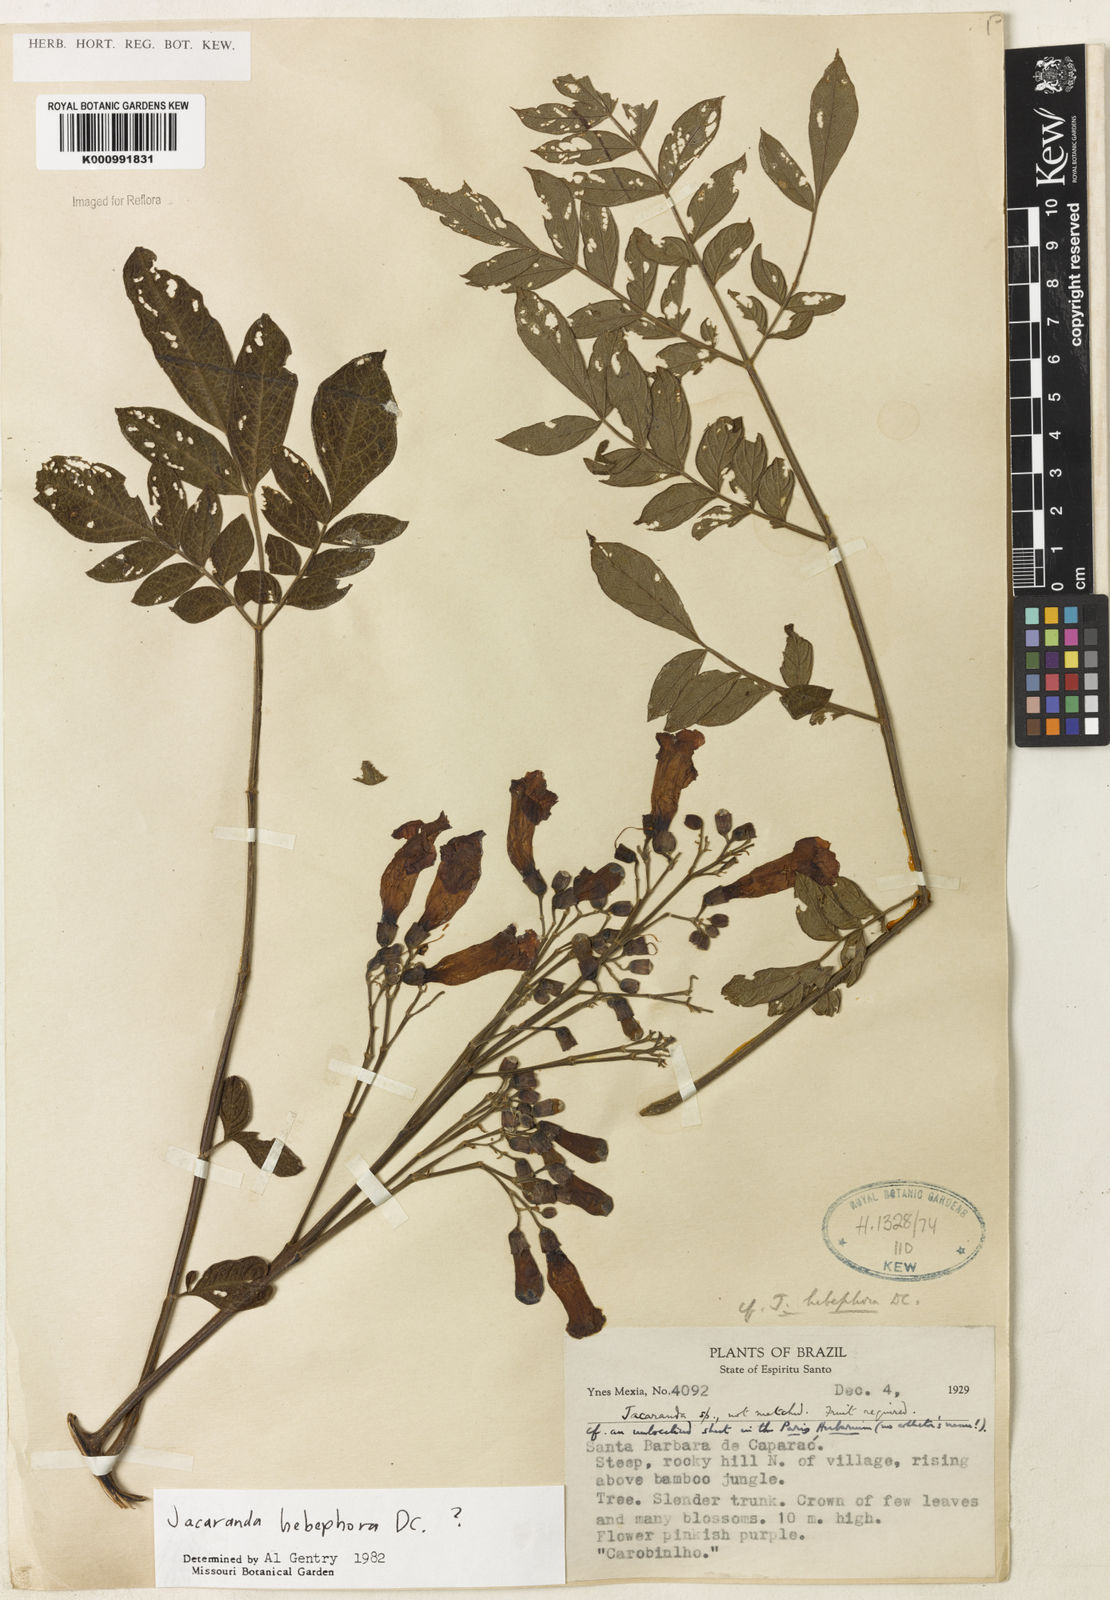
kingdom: Plantae
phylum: Tracheophyta
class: Magnoliopsida
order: Lamiales
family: Bignoniaceae
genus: Jacaranda
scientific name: Jacaranda puberula
